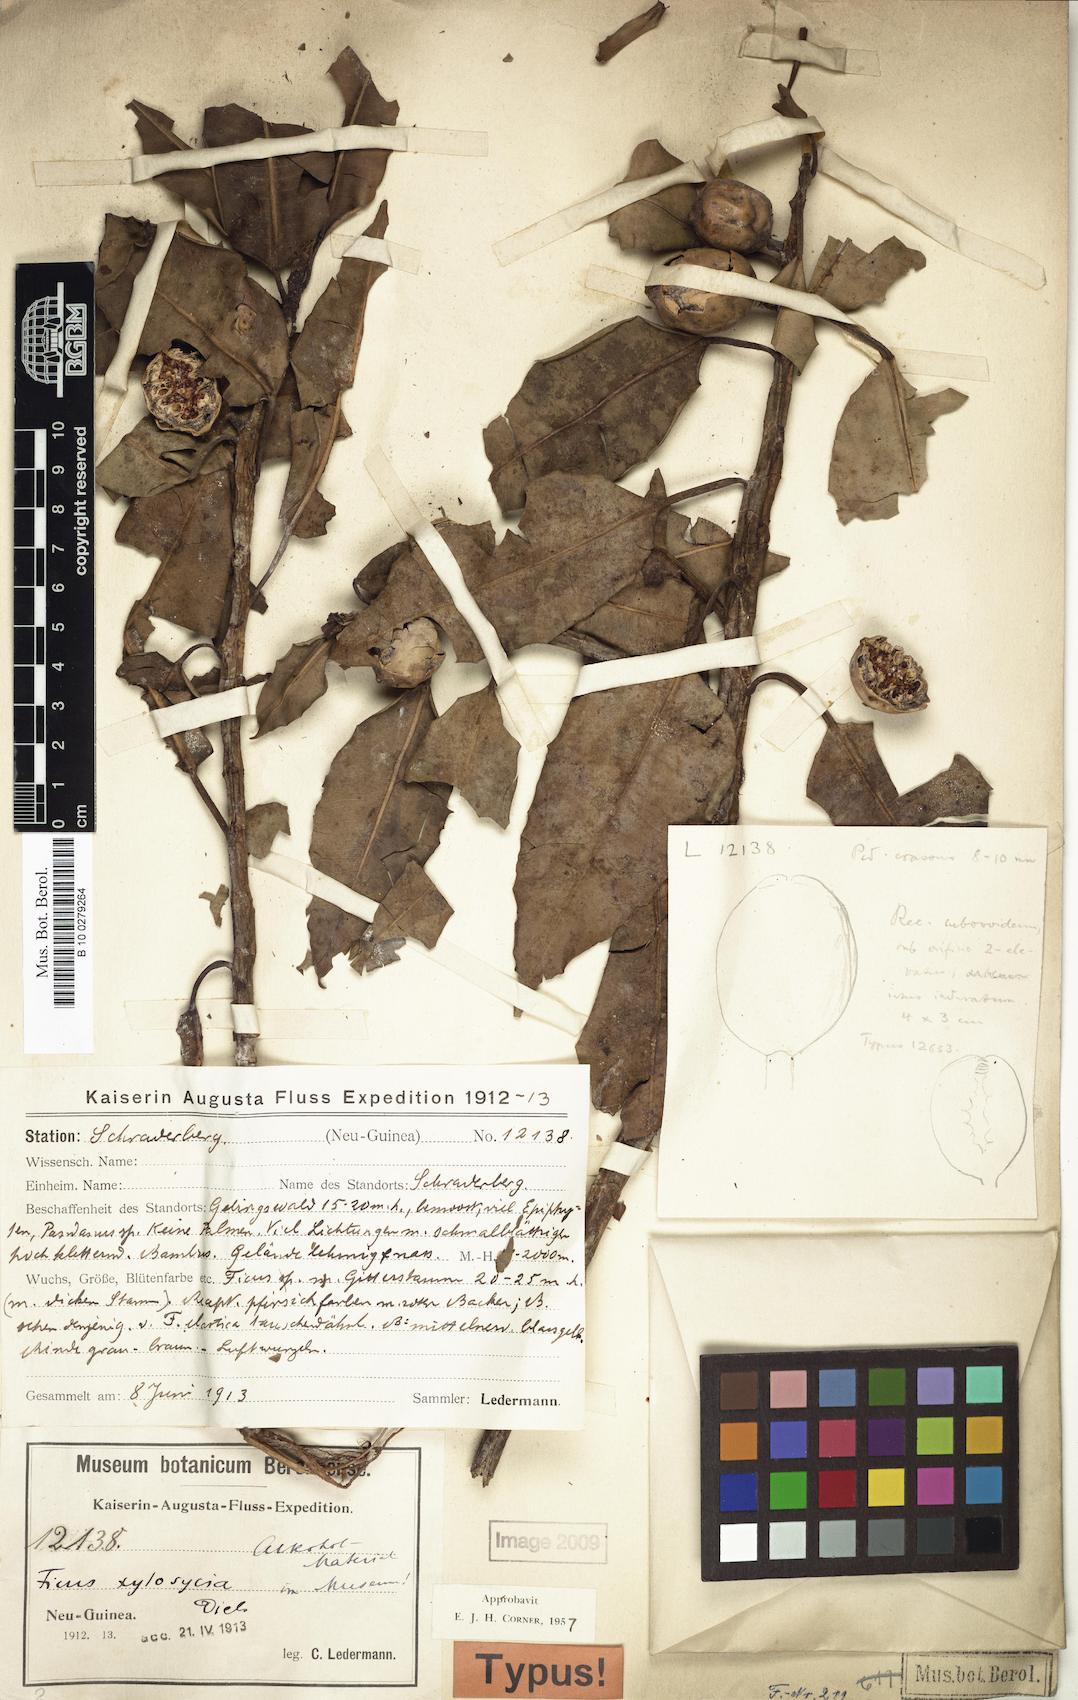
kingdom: Plantae
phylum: Tracheophyta
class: Magnoliopsida
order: Rosales
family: Moraceae
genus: Ficus
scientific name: Ficus hesperidiiformis
